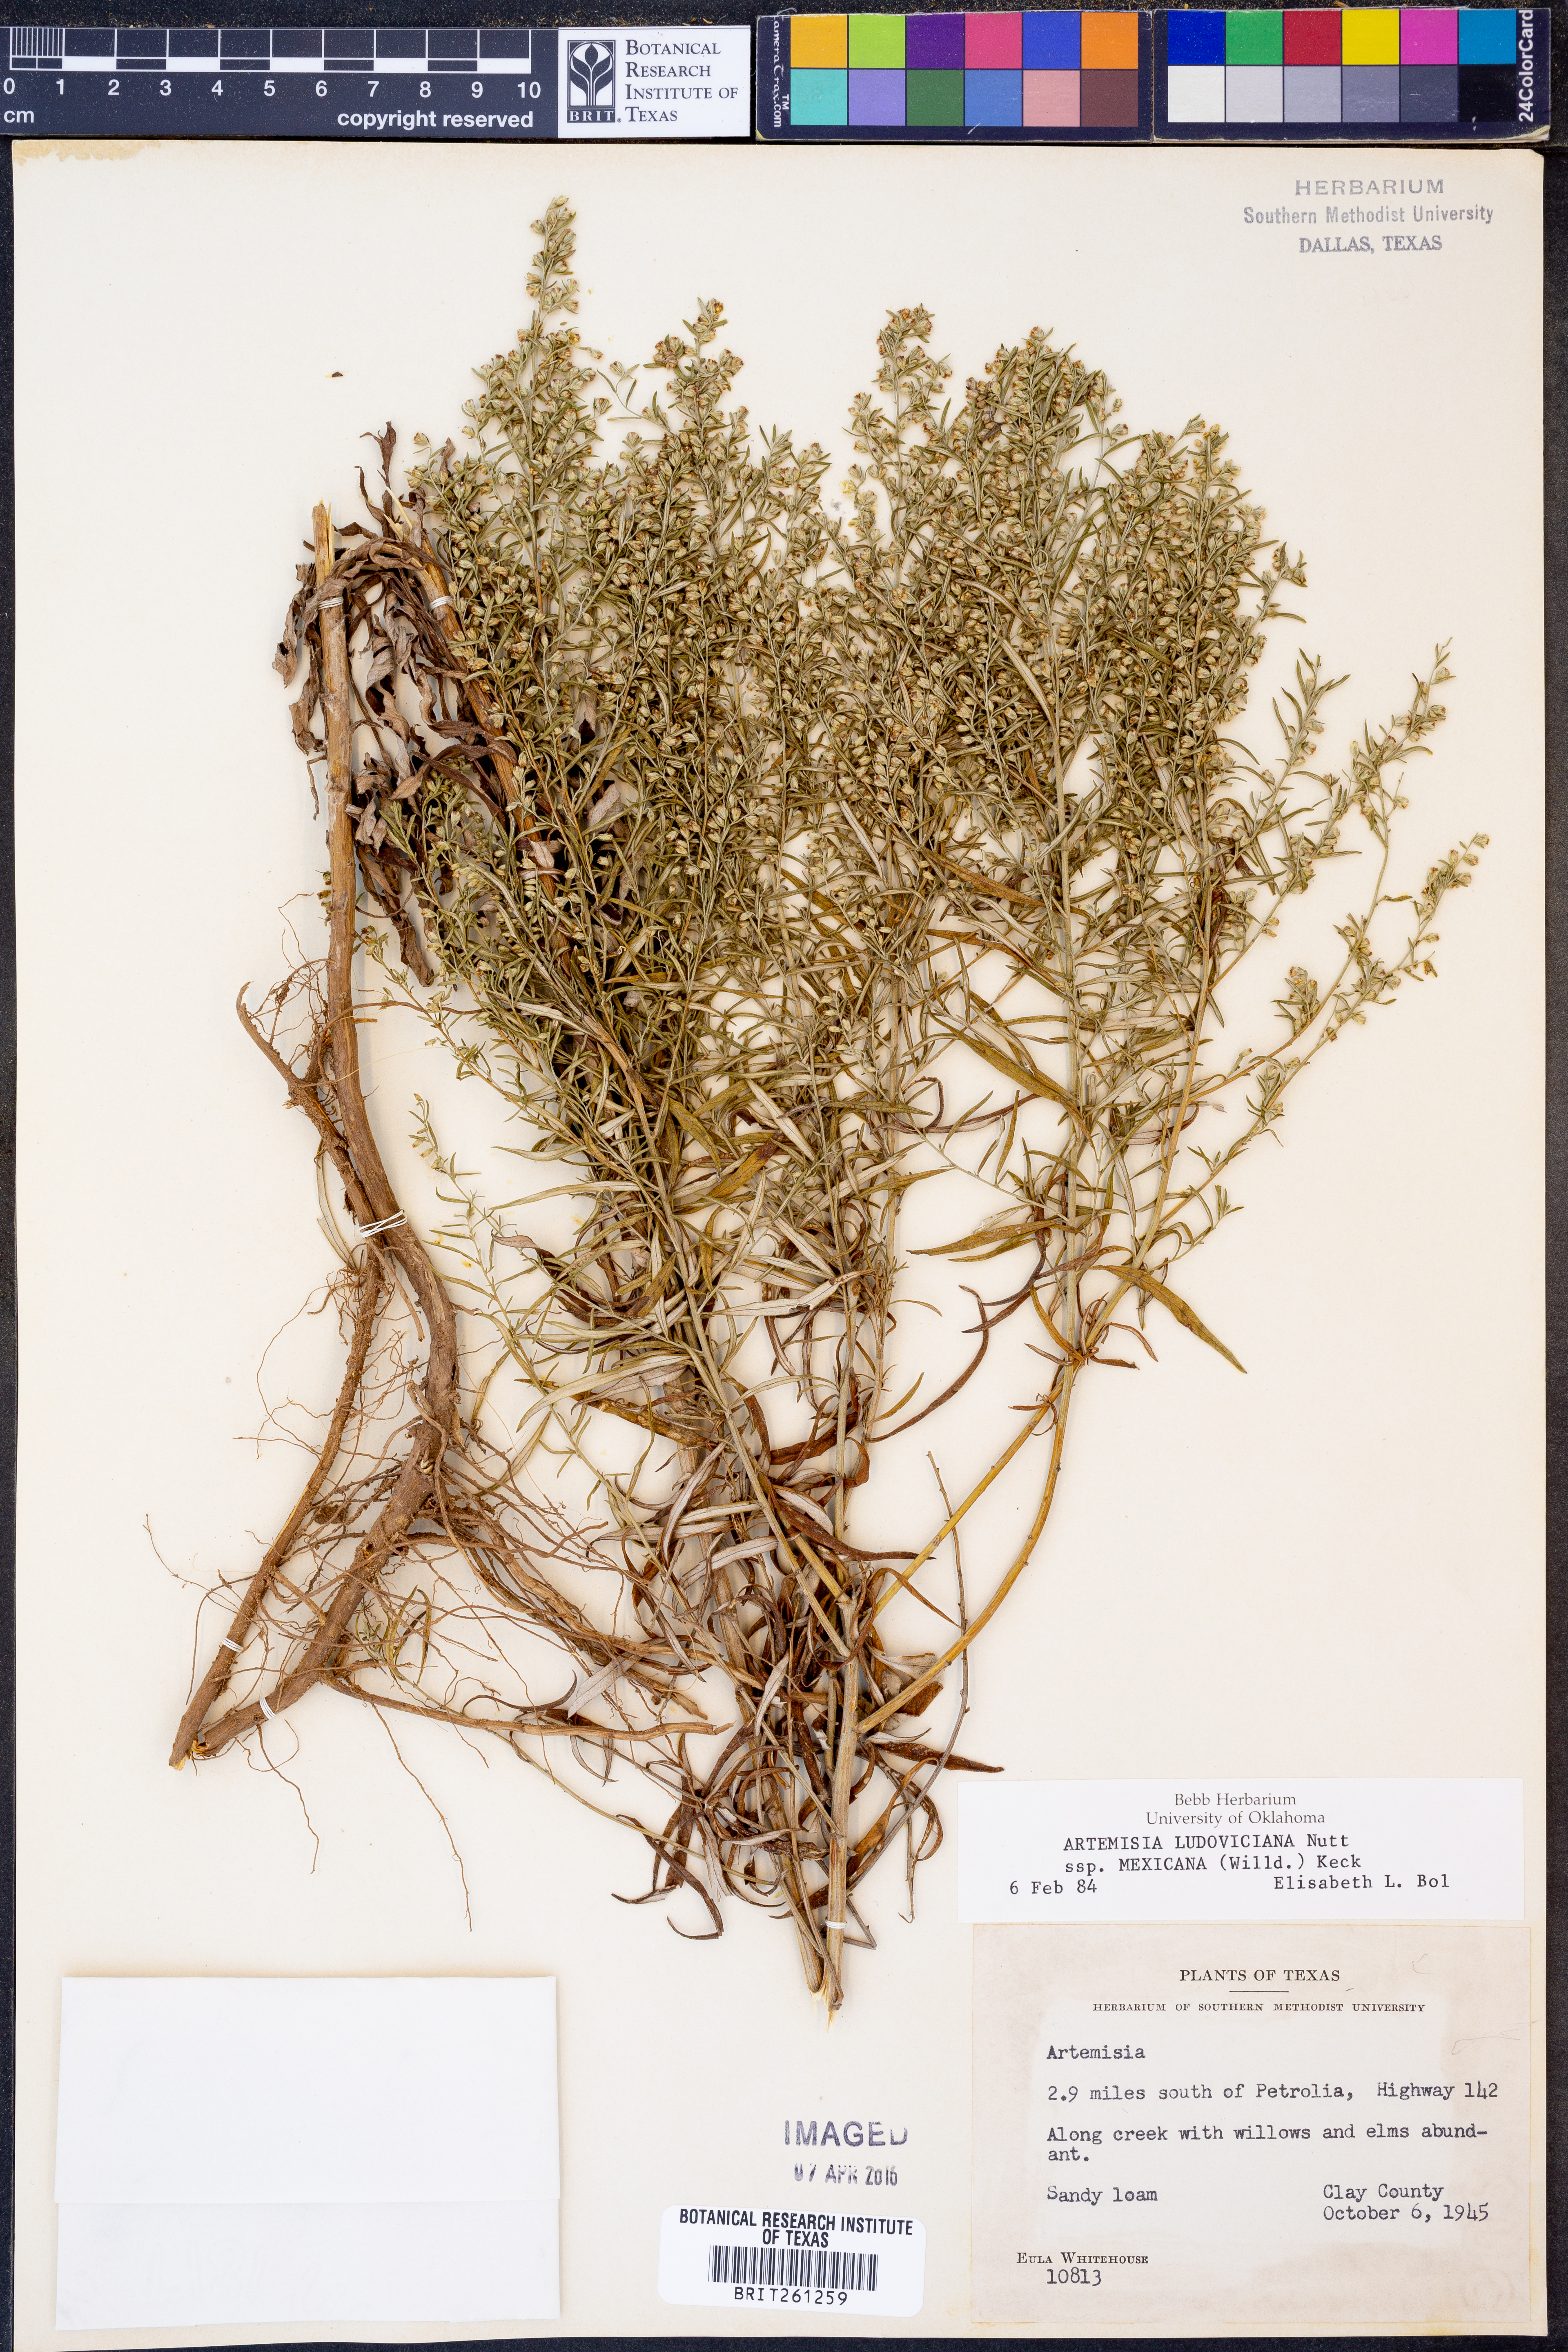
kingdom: Plantae
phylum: Tracheophyta
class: Magnoliopsida
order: Asterales
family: Asteraceae
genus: Artemisia
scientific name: Artemisia ludoviciana
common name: Western mugwort
